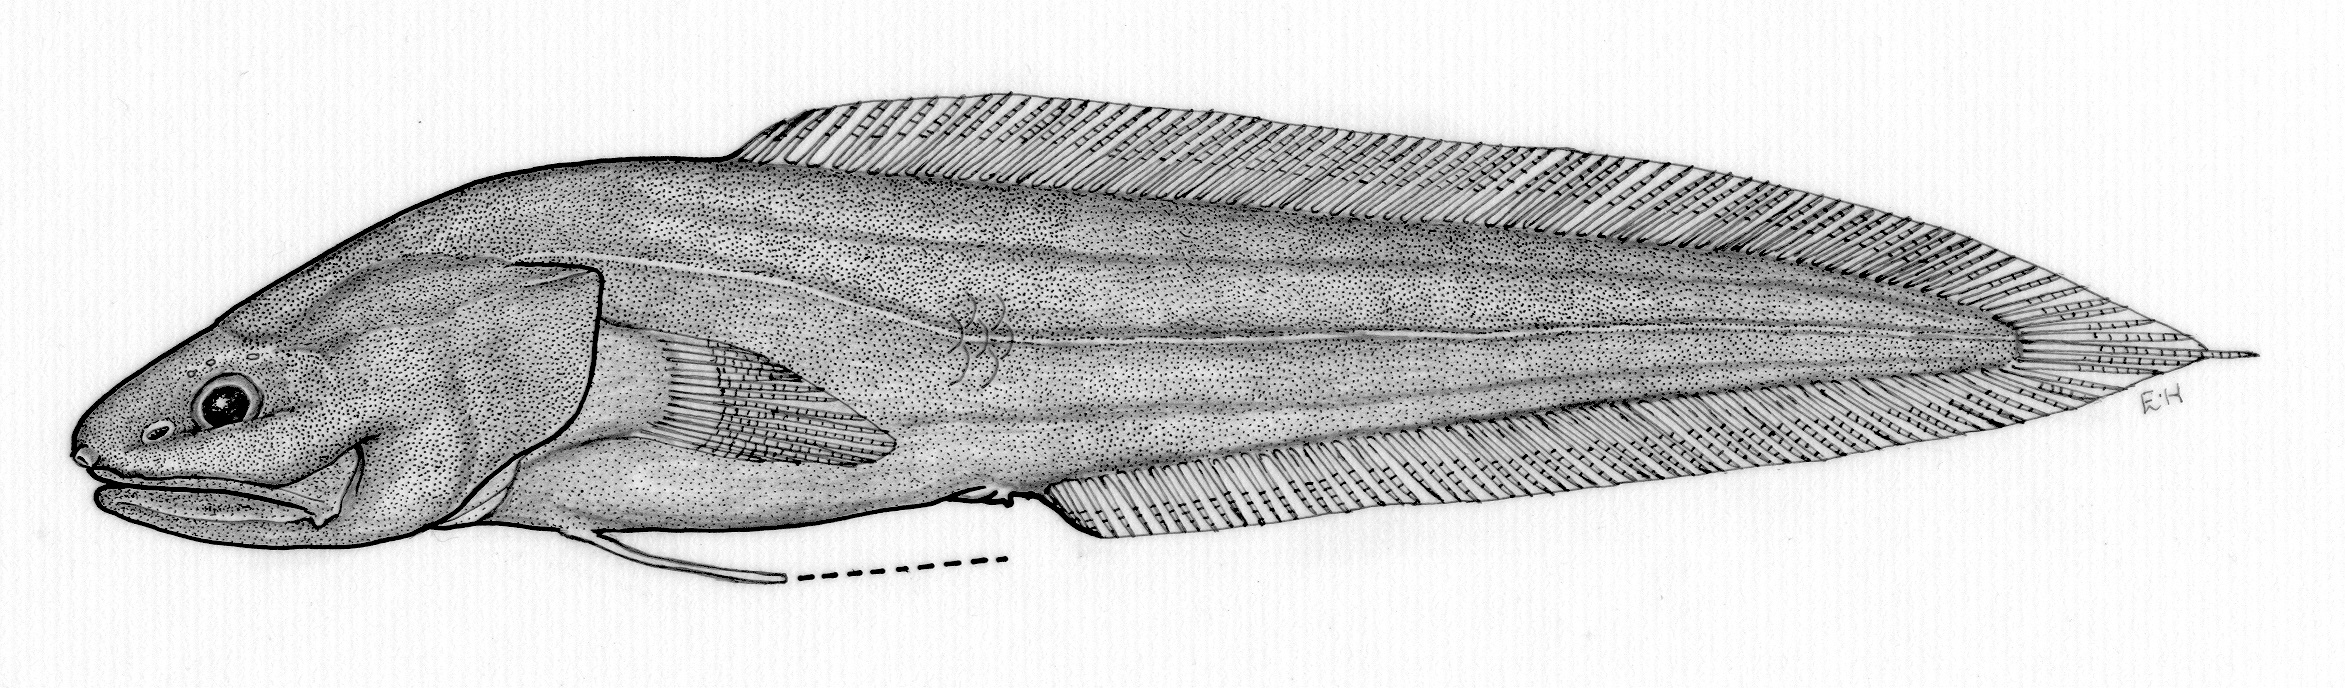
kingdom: Animalia
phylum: Chordata
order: Ophidiiformes
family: Bythitidae
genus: Microbrotula
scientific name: Microbrotula greenfieldi
